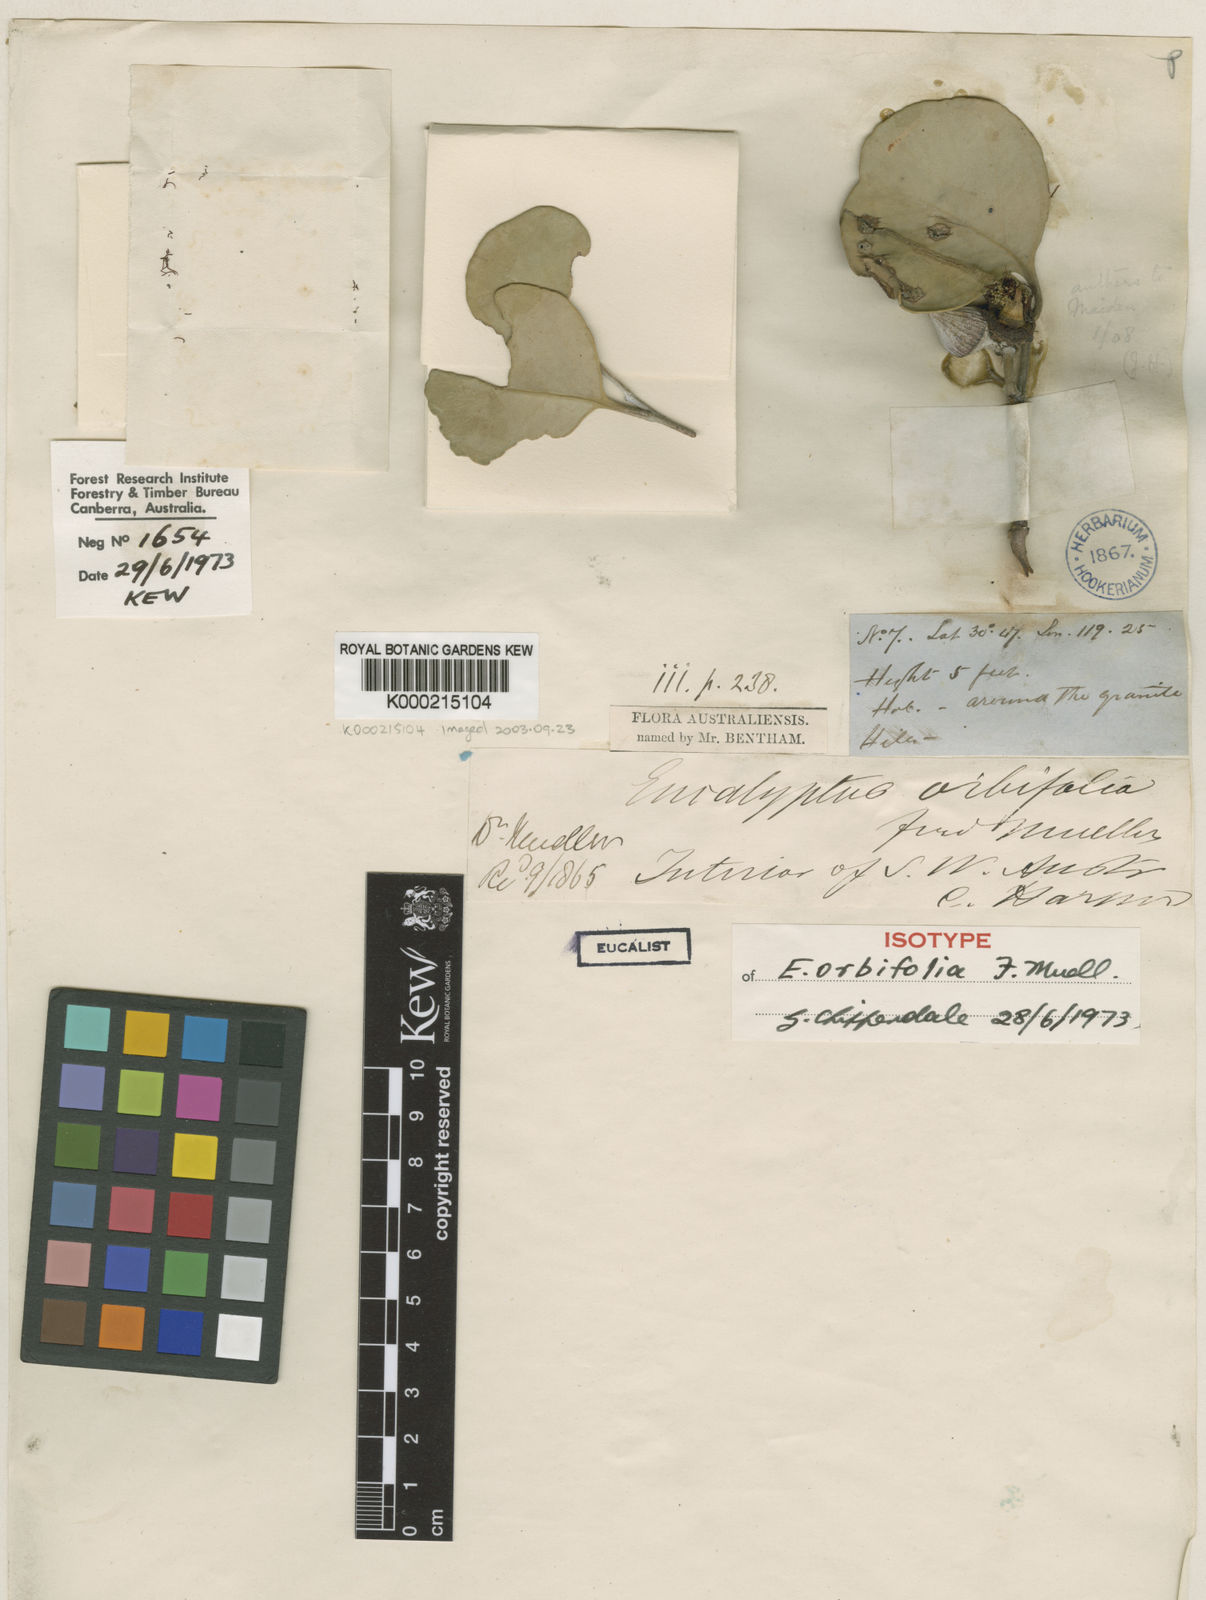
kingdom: Plantae
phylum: Tracheophyta
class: Magnoliopsida
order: Myrtales
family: Myrtaceae
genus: Eucalyptus
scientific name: Eucalyptus orbifolia
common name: Disc-leaf mallee
